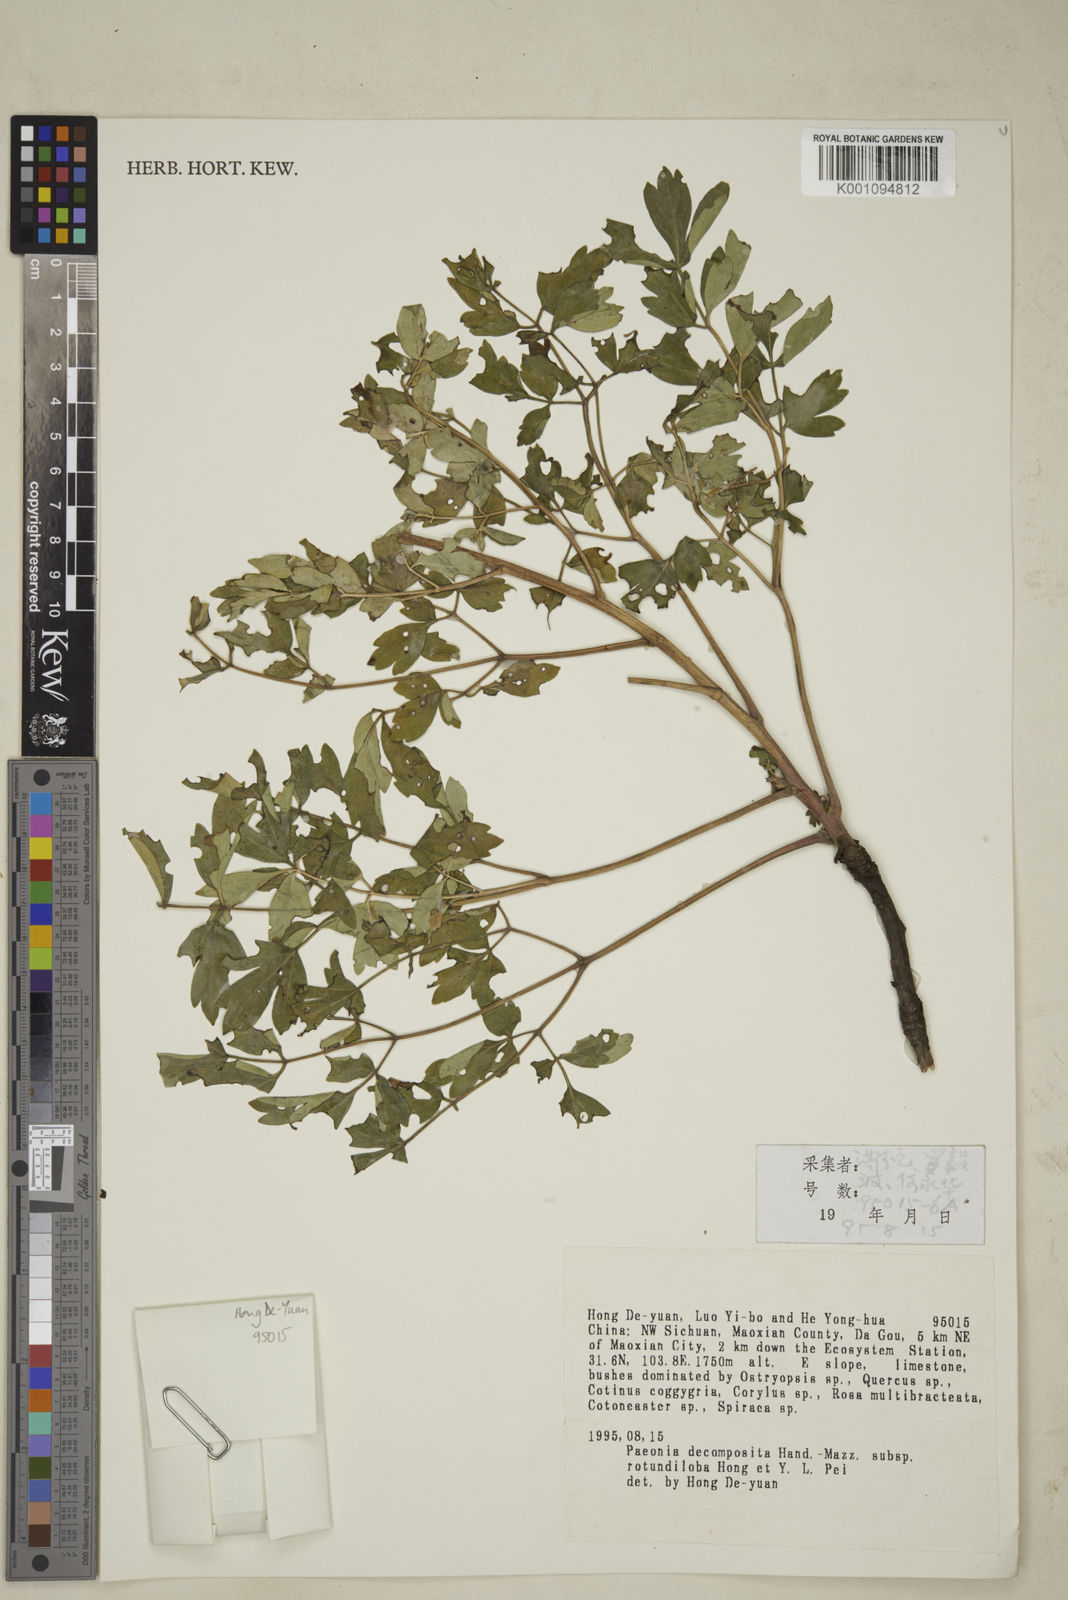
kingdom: Plantae
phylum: Tracheophyta
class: Magnoliopsida
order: Saxifragales
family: Paeoniaceae
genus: Paeonia
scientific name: Paeonia suffruticosa
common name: Moutan peony
